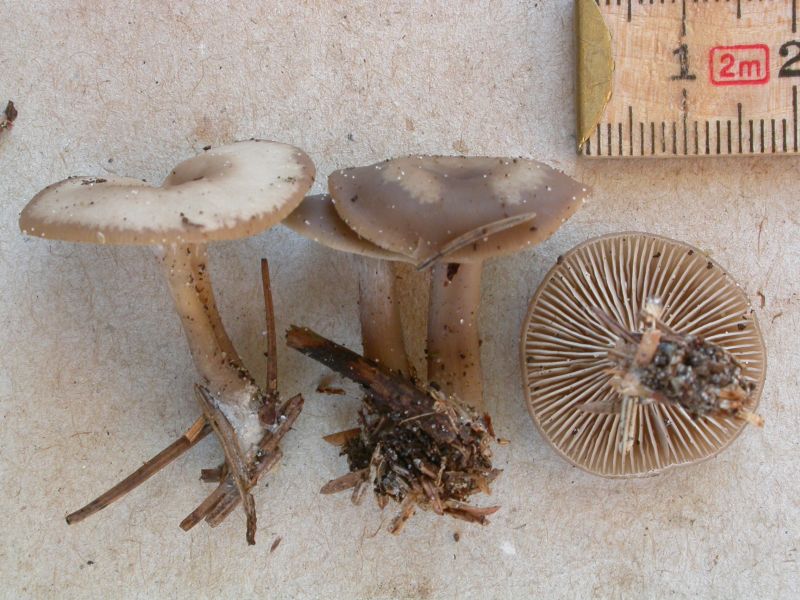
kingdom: Fungi
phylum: Basidiomycota
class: Agaricomycetes
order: Agaricales
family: Tricholomataceae
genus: Clitocybe
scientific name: Clitocybe metachroa
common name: grå tragthat
